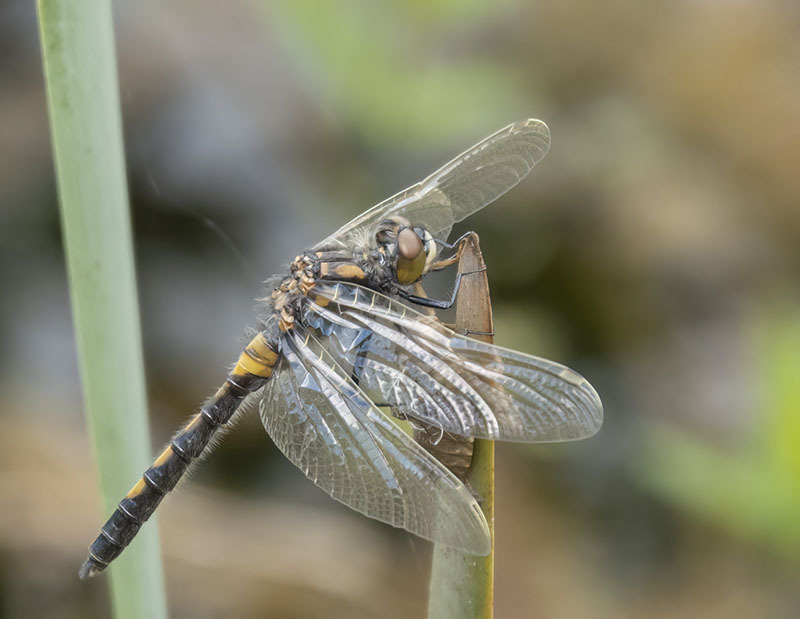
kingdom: Animalia
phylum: Arthropoda
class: Insecta
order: Odonata
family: Libellulidae
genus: Leucorrhinia
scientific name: Leucorrhinia rubicunda
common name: Ruby whiteface
